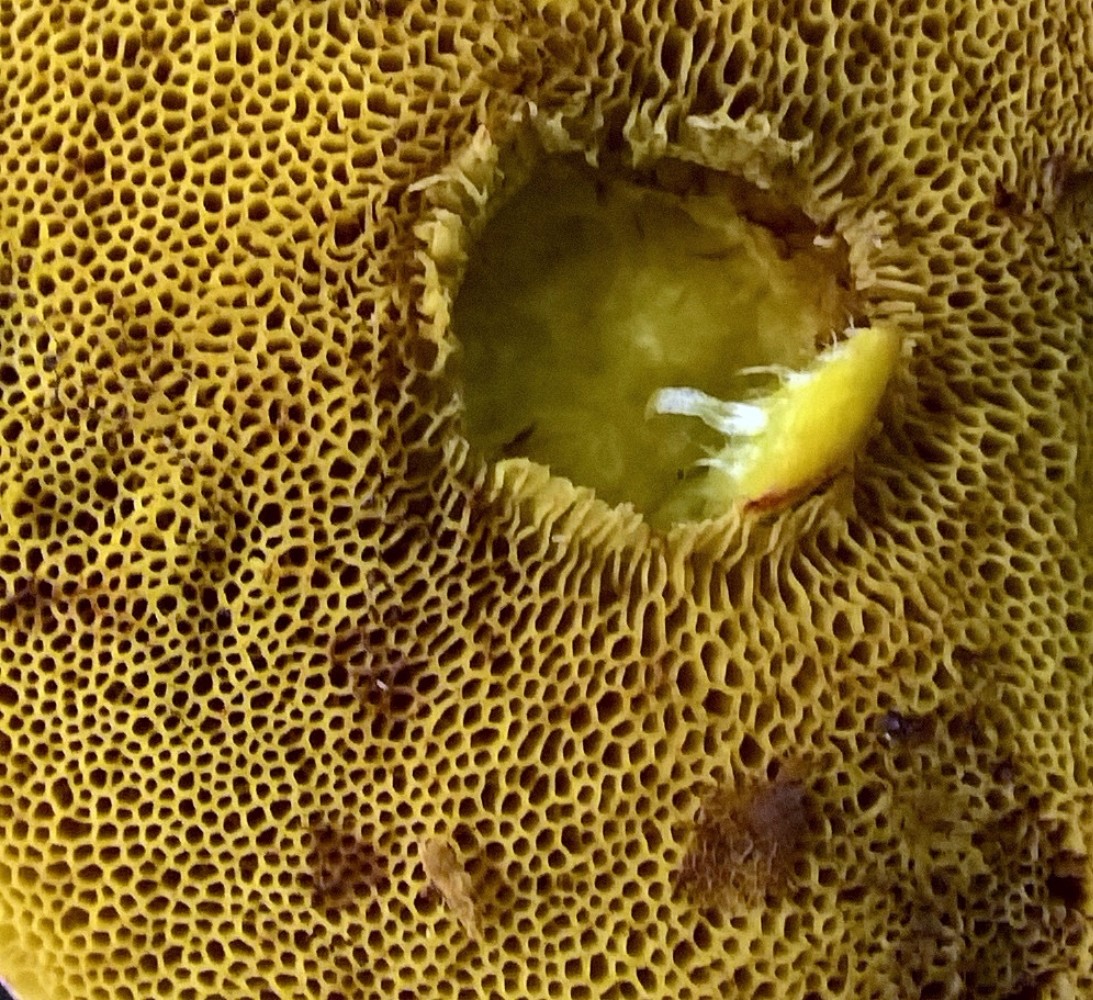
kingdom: Fungi
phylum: Basidiomycota
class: Agaricomycetes
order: Boletales
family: Boletaceae
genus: Xerocomellus
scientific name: Xerocomellus pruinatus
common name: dugget rørhat
